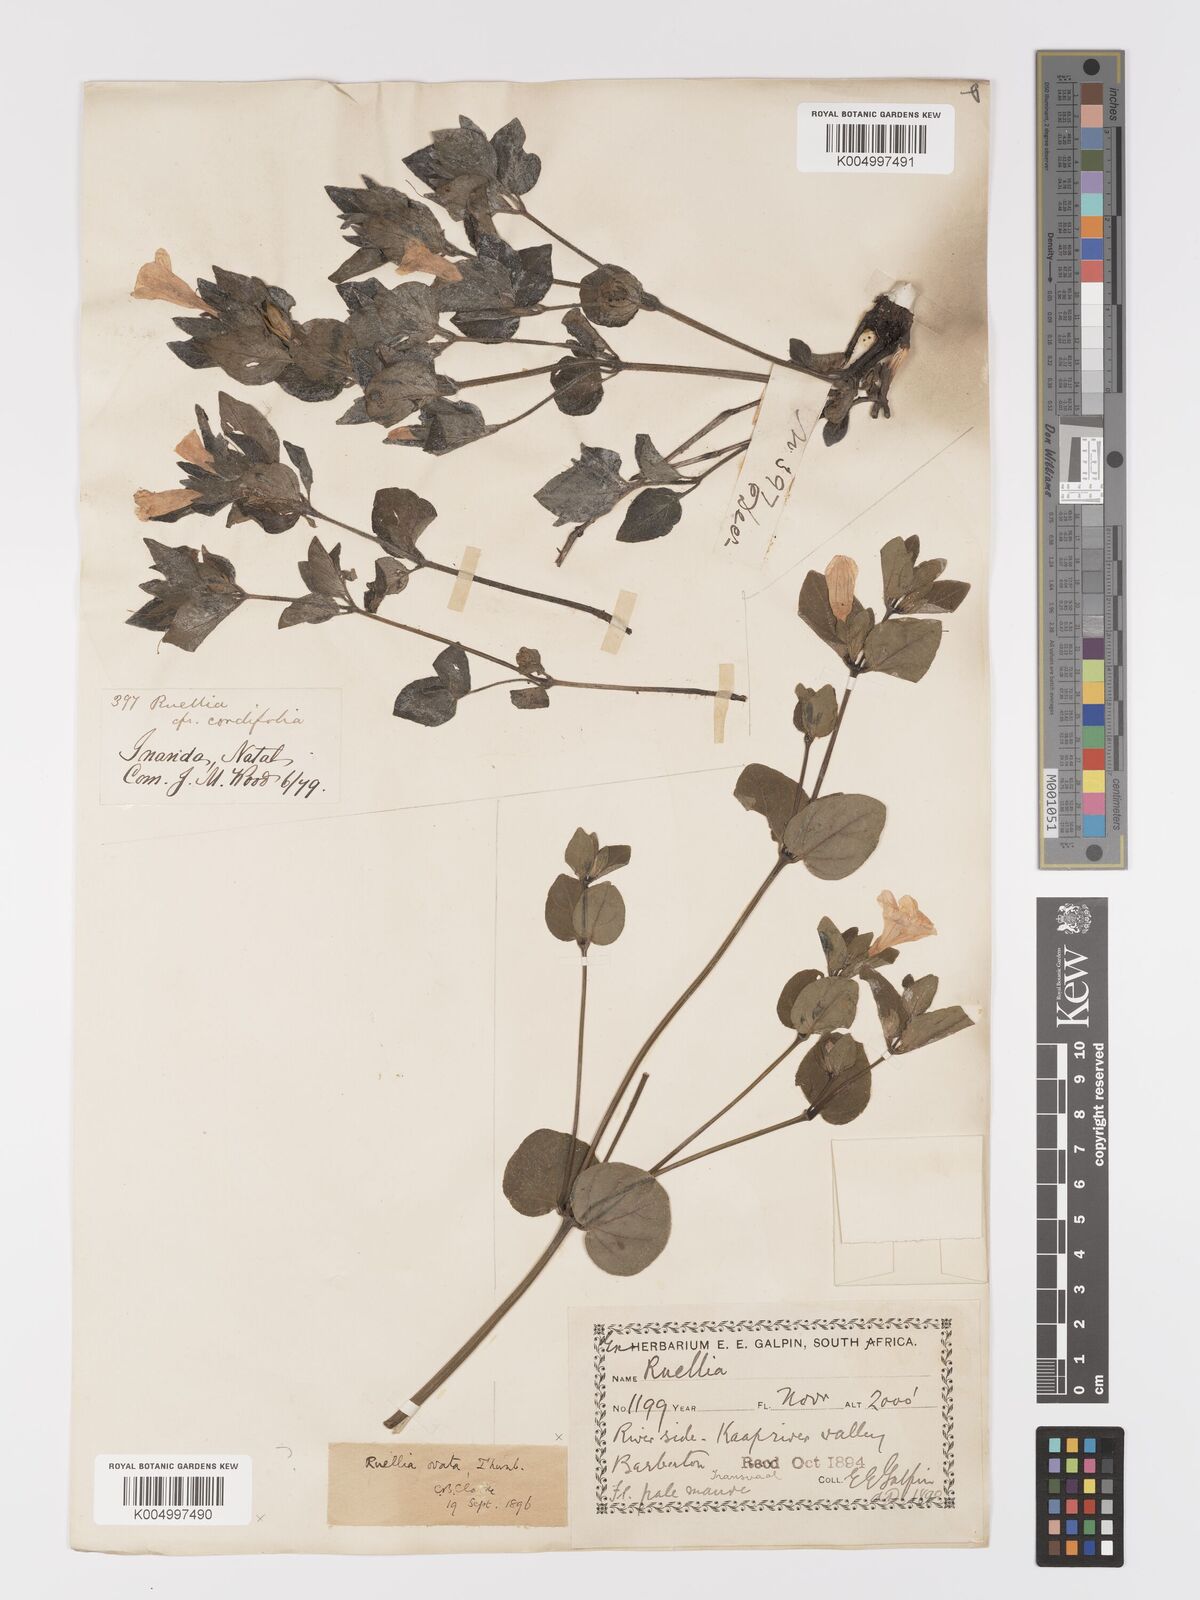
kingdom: Plantae
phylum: Tracheophyta
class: Magnoliopsida
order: Lamiales
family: Acanthaceae
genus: Ruellia
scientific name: Ruellia cordata
